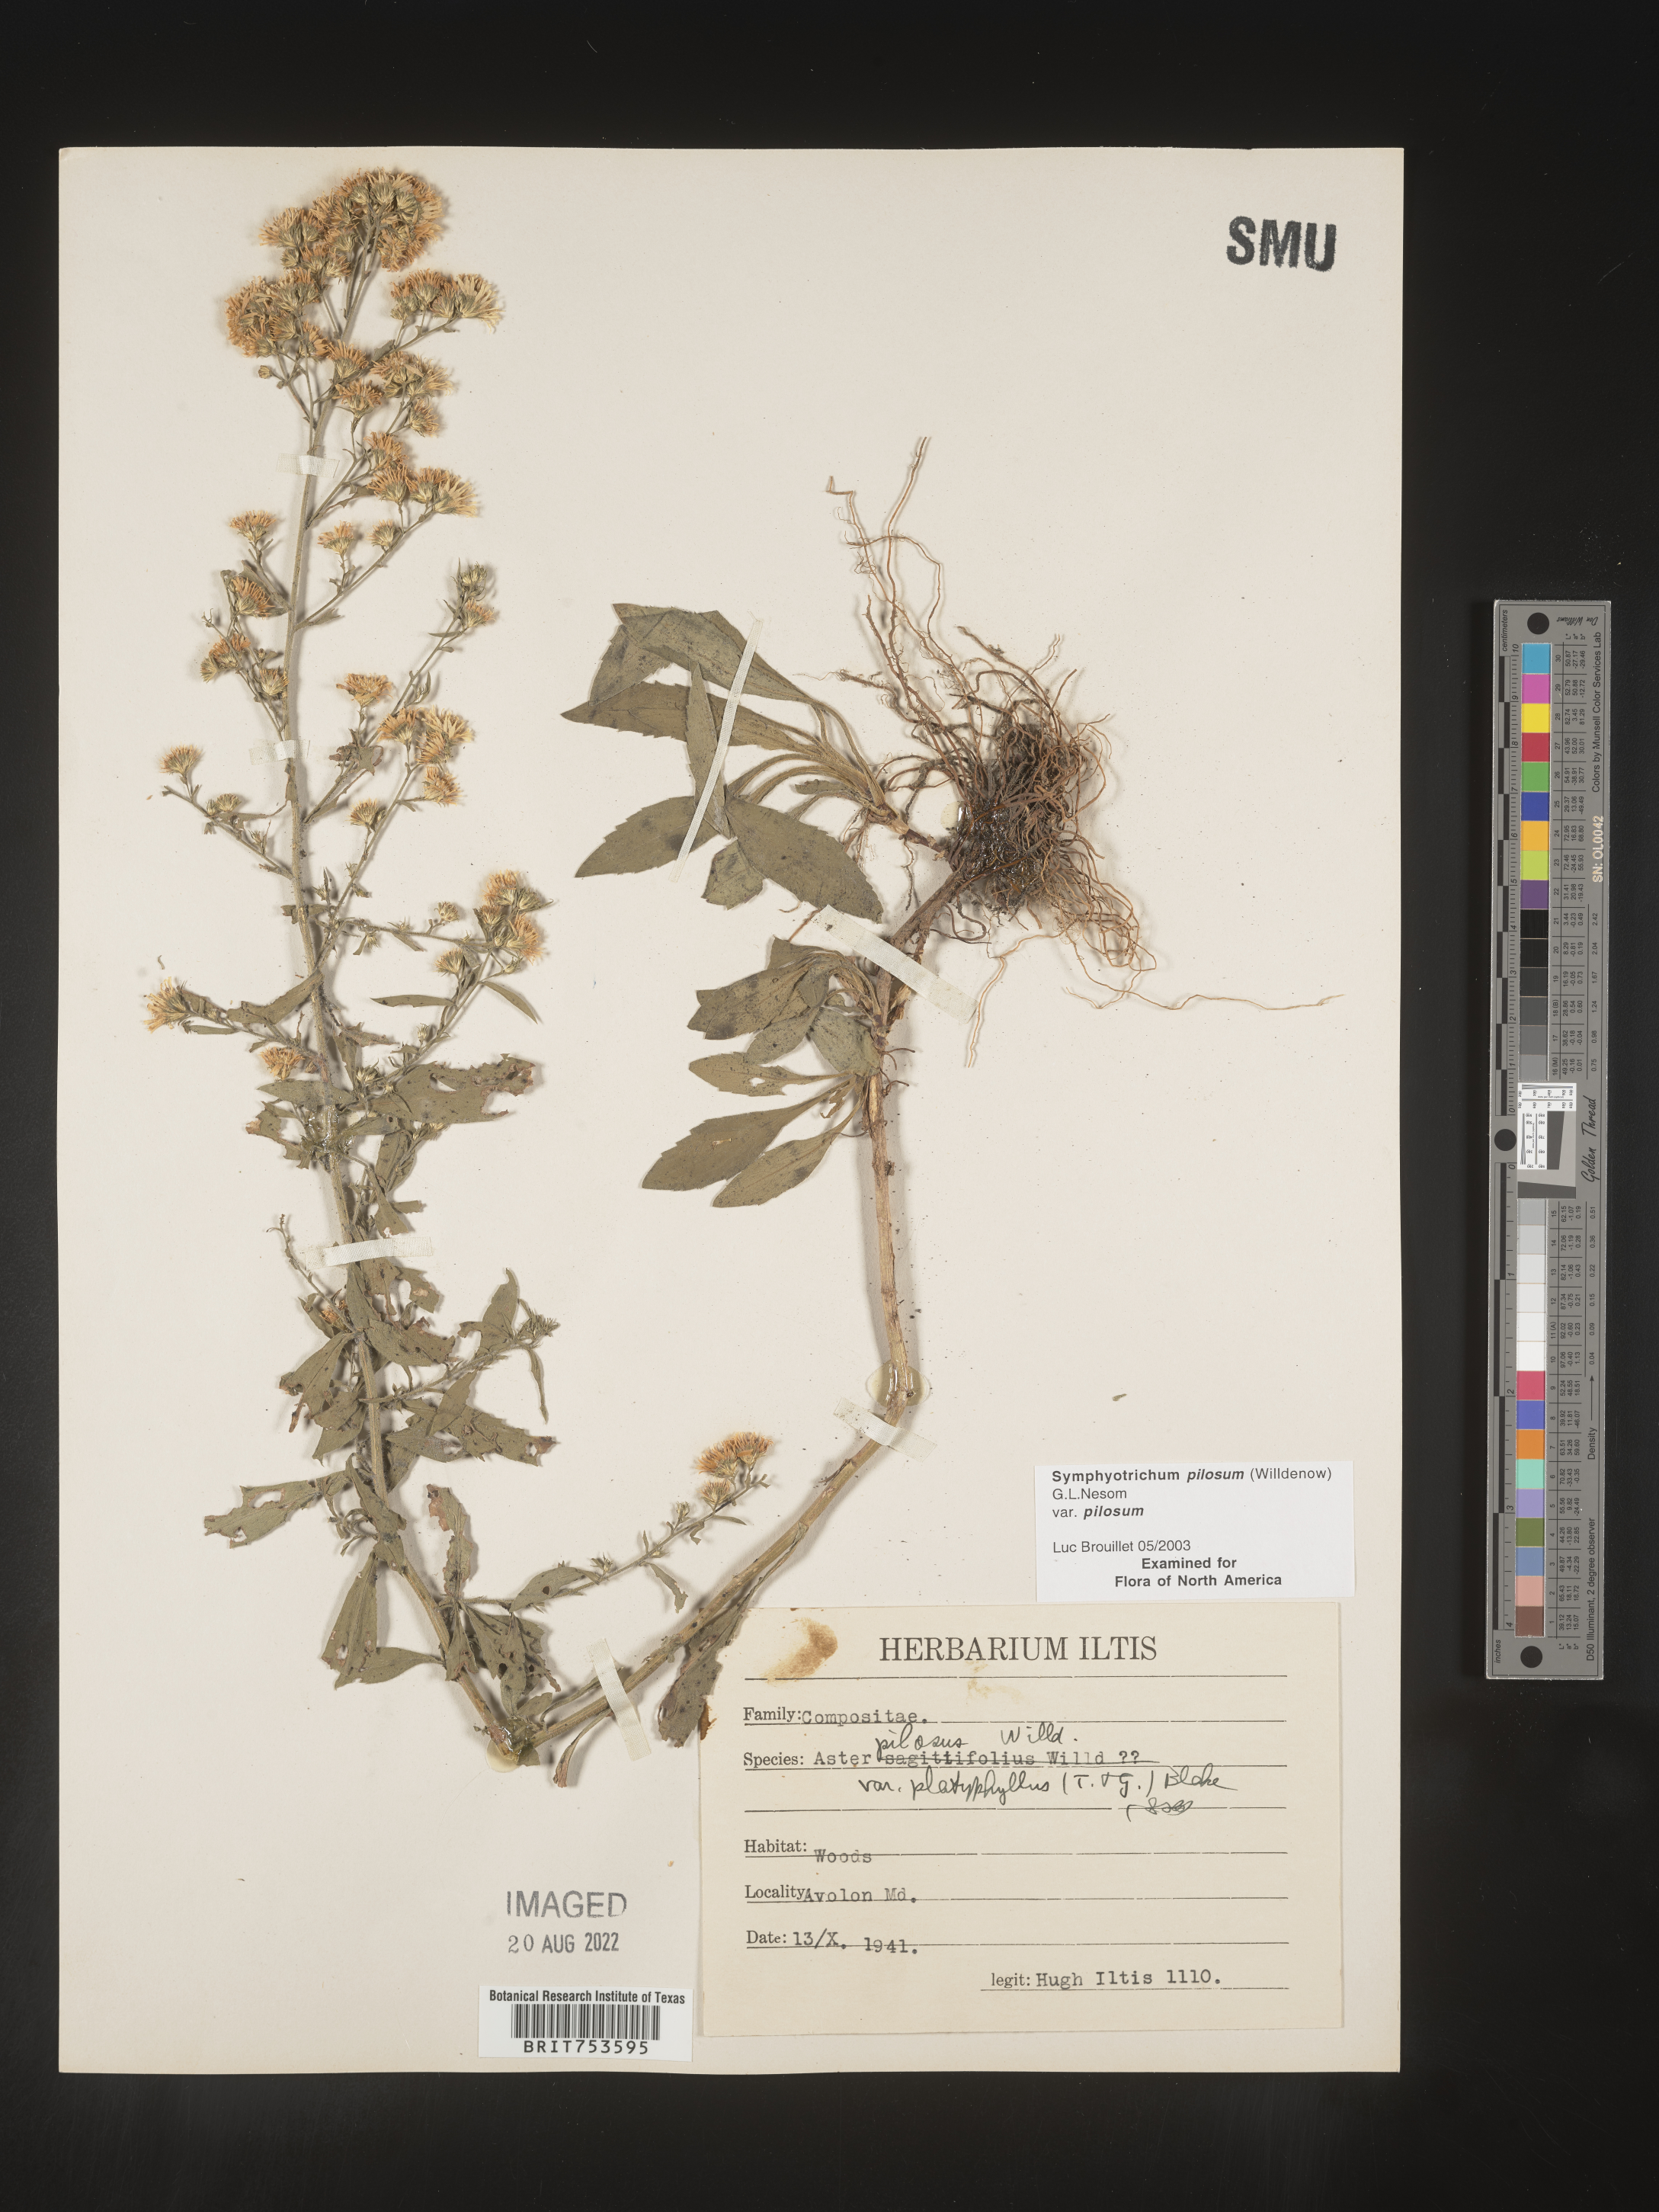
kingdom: Plantae
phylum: Tracheophyta
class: Magnoliopsida
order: Asterales
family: Asteraceae
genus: Symphyotrichum
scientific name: Symphyotrichum pilosum
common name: Awl aster
